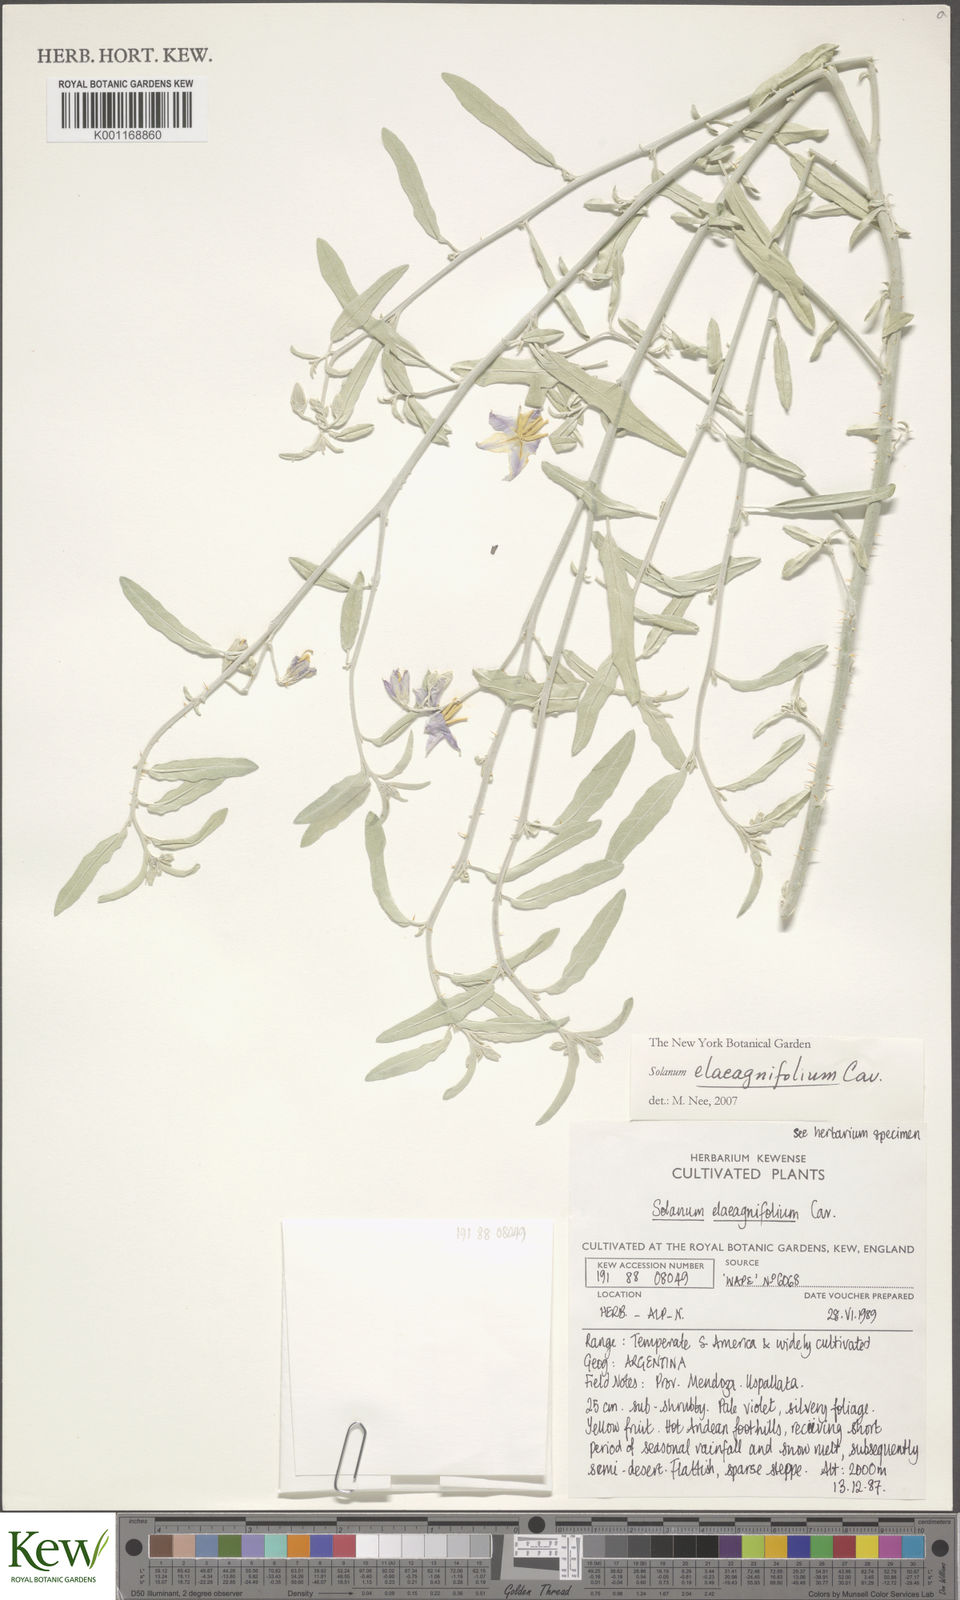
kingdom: Plantae
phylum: Tracheophyta
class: Magnoliopsida
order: Solanales
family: Solanaceae
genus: Solanum
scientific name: Solanum elaeagnifolium
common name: Silverleaf nightshade
